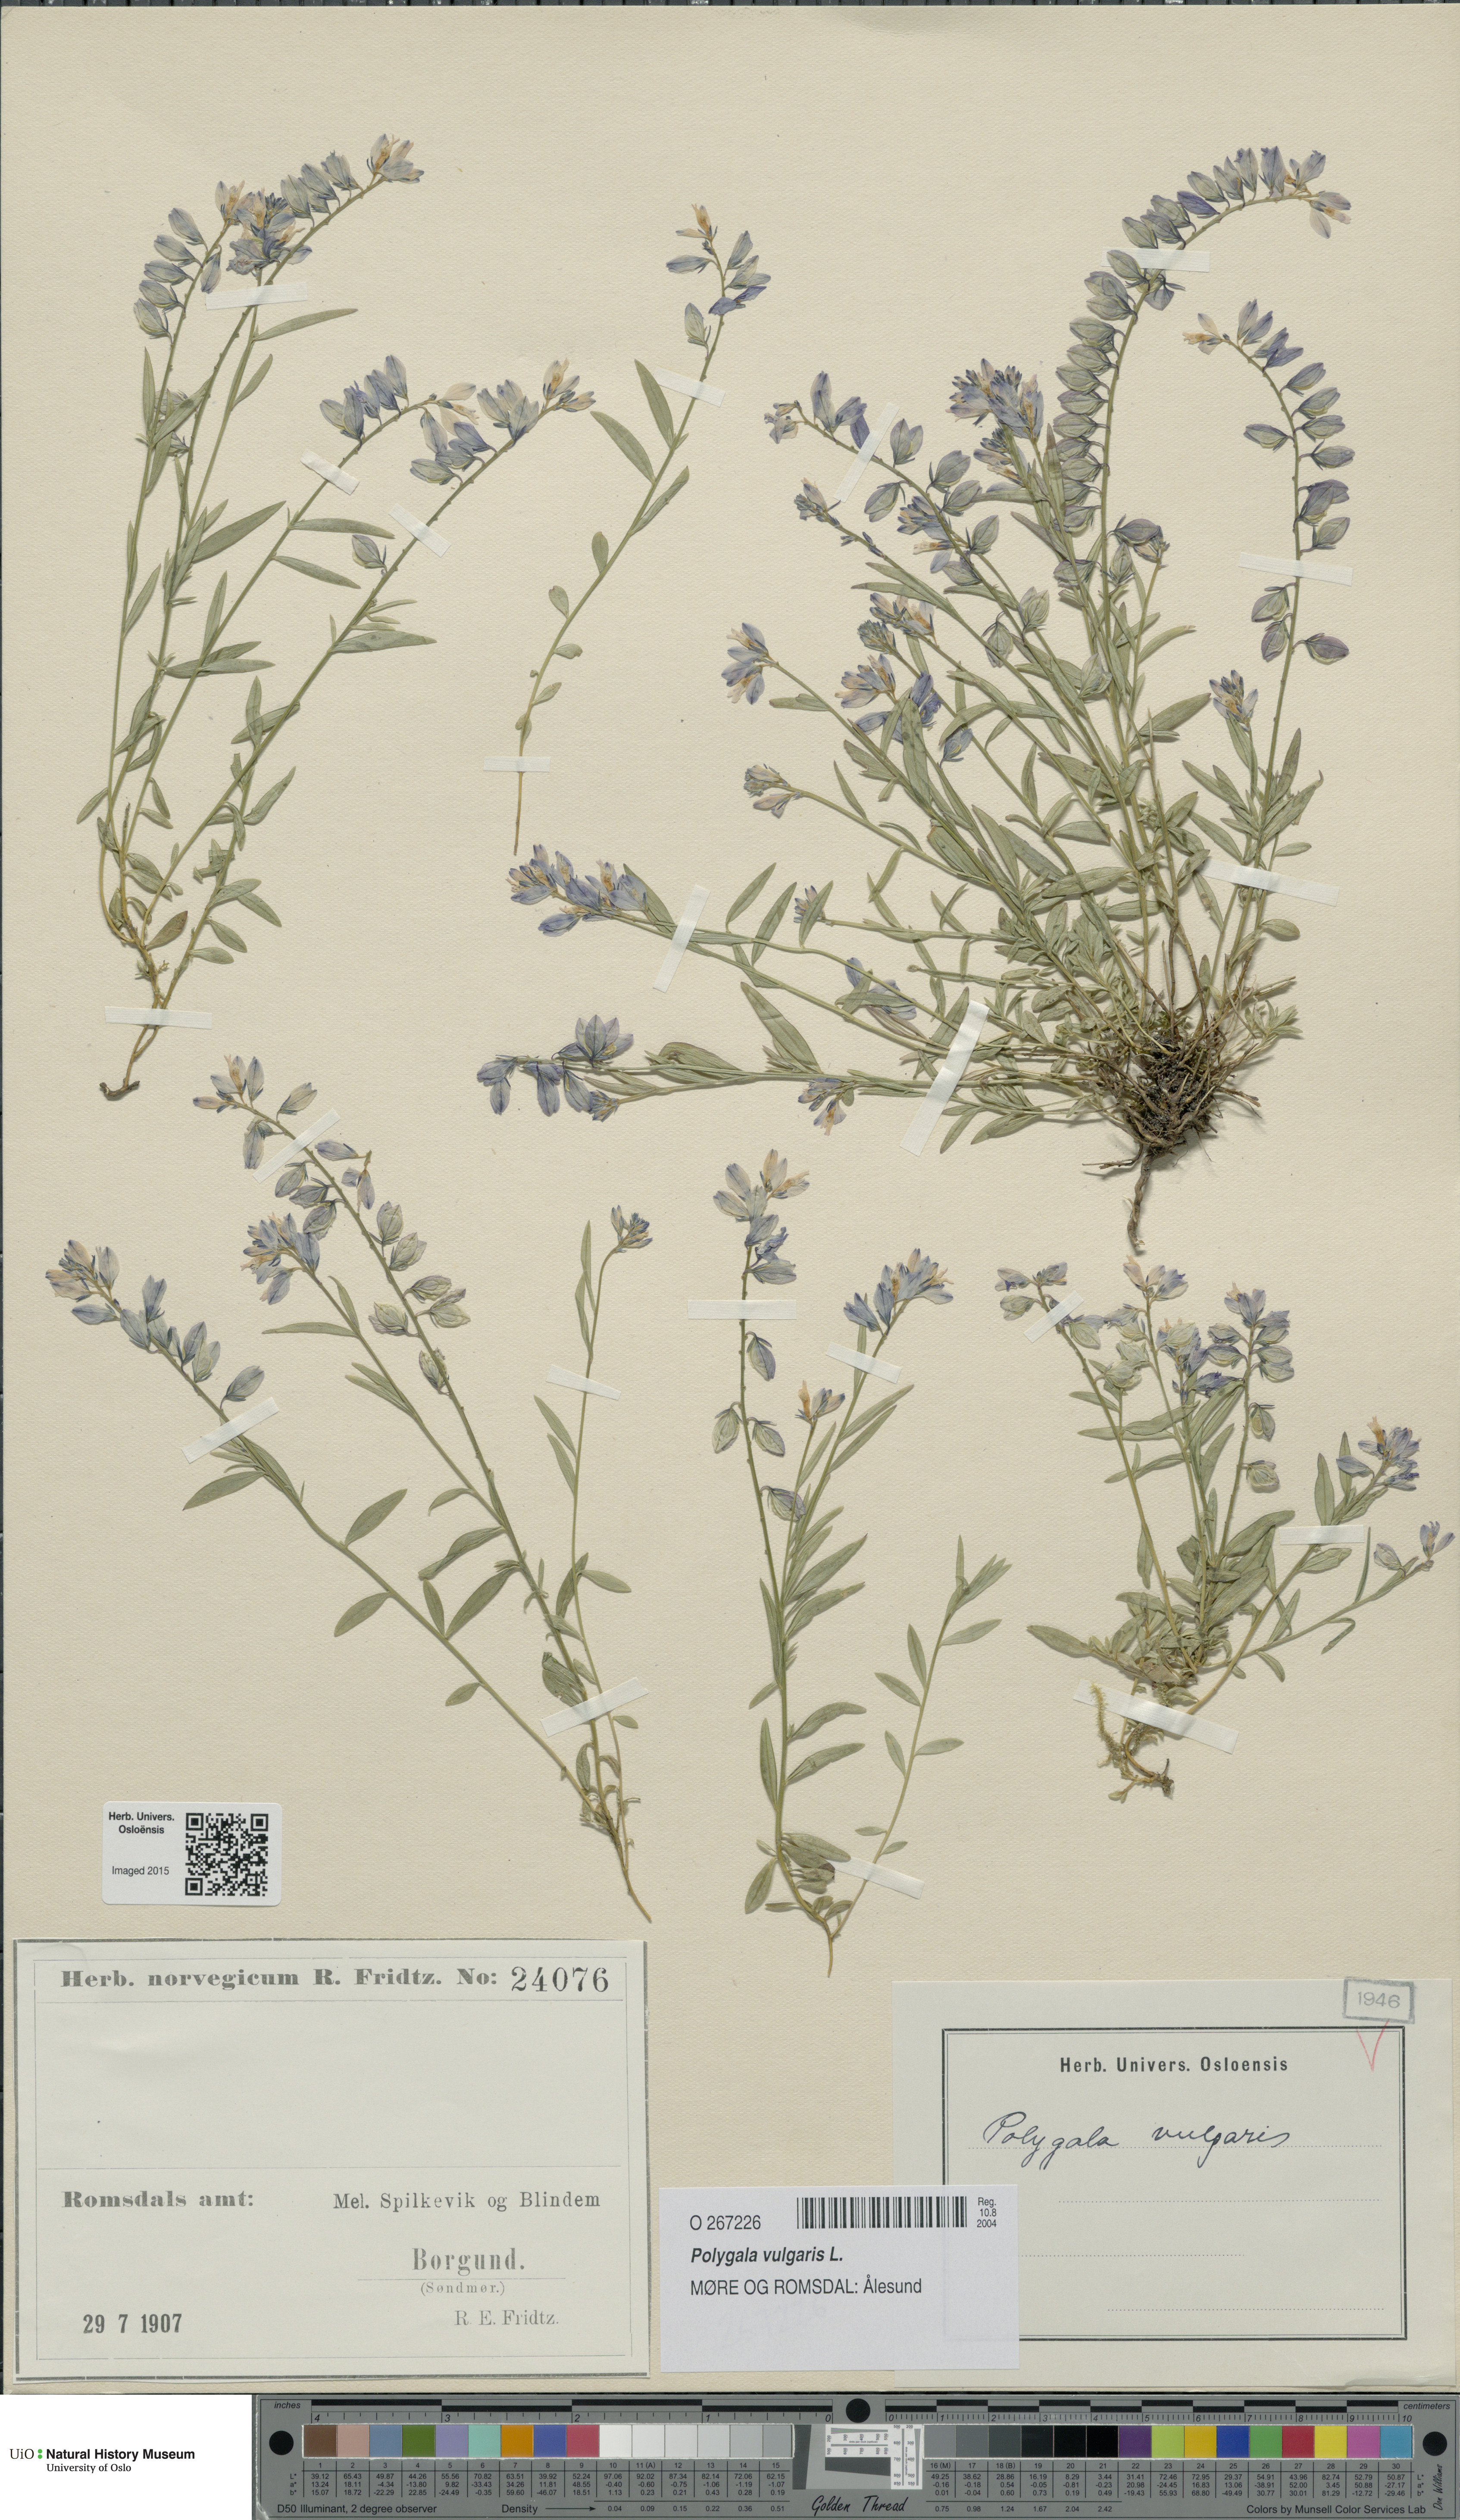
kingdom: Plantae
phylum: Tracheophyta
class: Magnoliopsida
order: Fabales
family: Polygalaceae
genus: Polygala
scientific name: Polygala vulgaris
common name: Common milkwort
